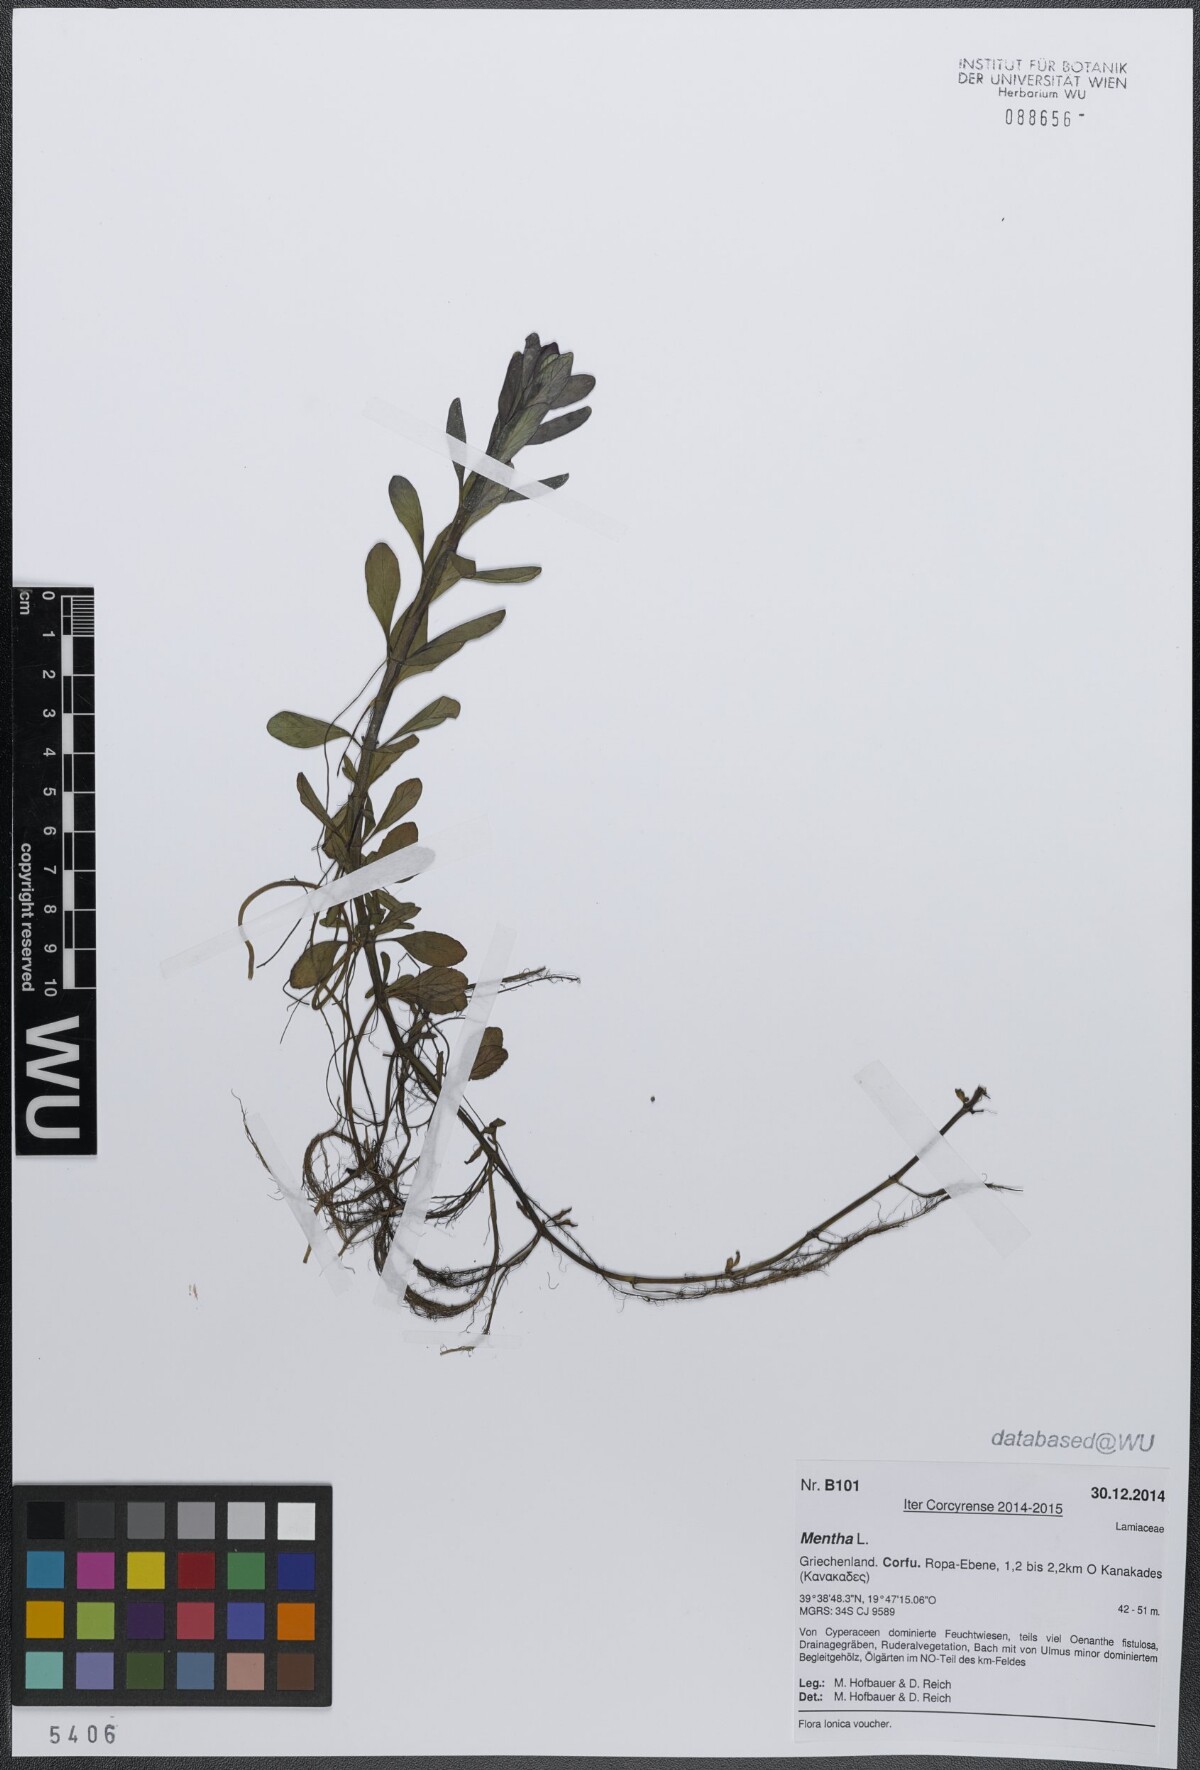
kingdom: Plantae
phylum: Tracheophyta
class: Magnoliopsida
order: Lamiales
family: Lamiaceae
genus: Mentha
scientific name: Mentha
